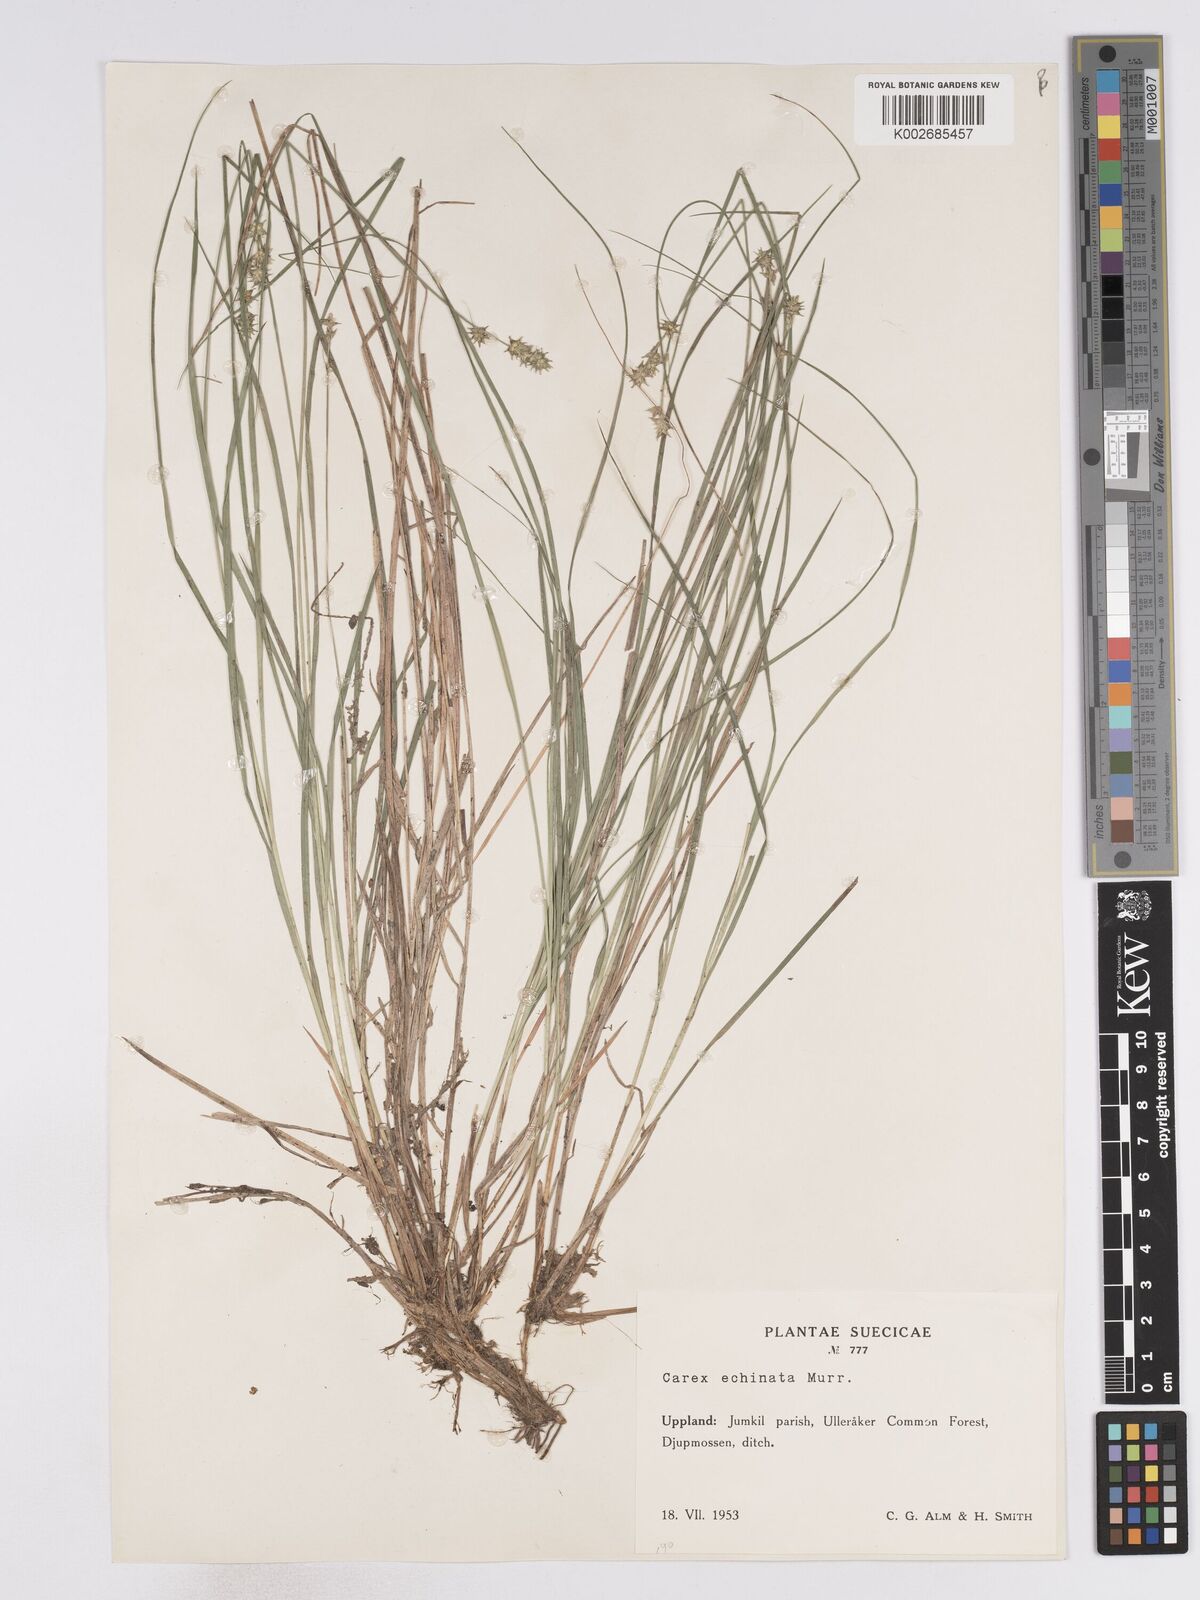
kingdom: Plantae
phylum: Tracheophyta
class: Liliopsida
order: Poales
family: Cyperaceae
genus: Carex
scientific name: Carex echinata
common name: Star sedge
